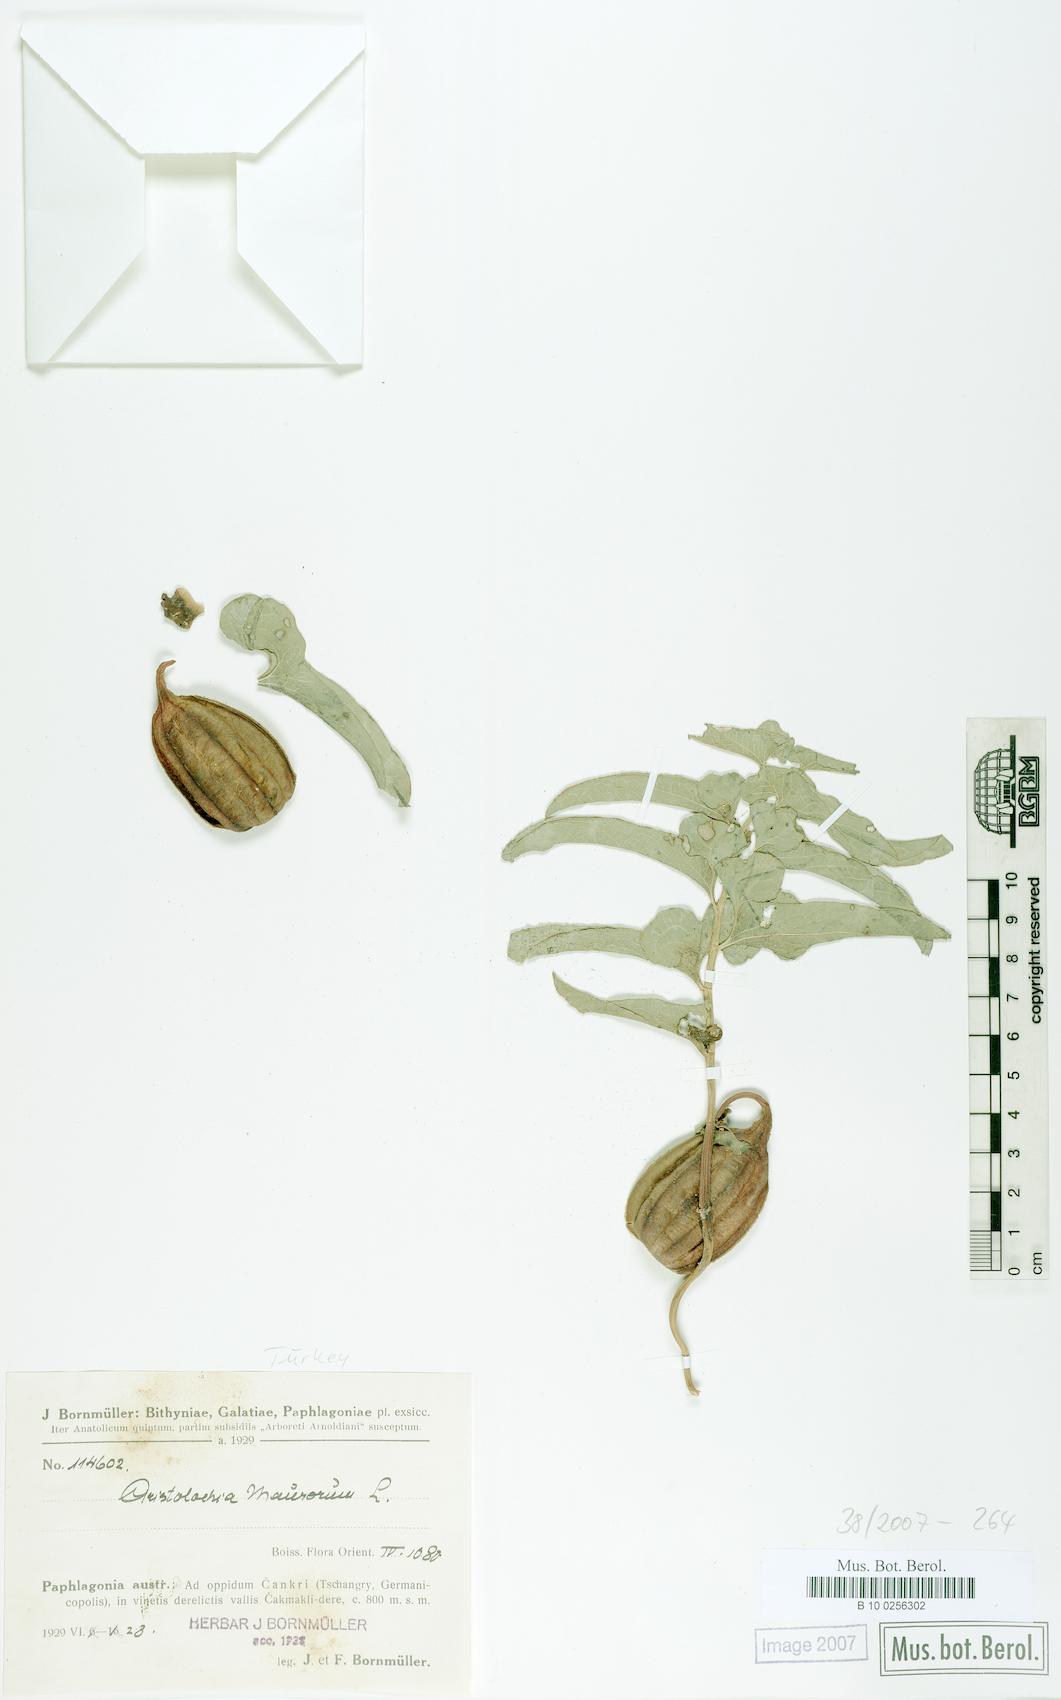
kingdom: Plantae
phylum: Tracheophyta
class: Magnoliopsida
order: Piperales
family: Aristolochiaceae
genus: Aristolochia
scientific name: Aristolochia maurorum
